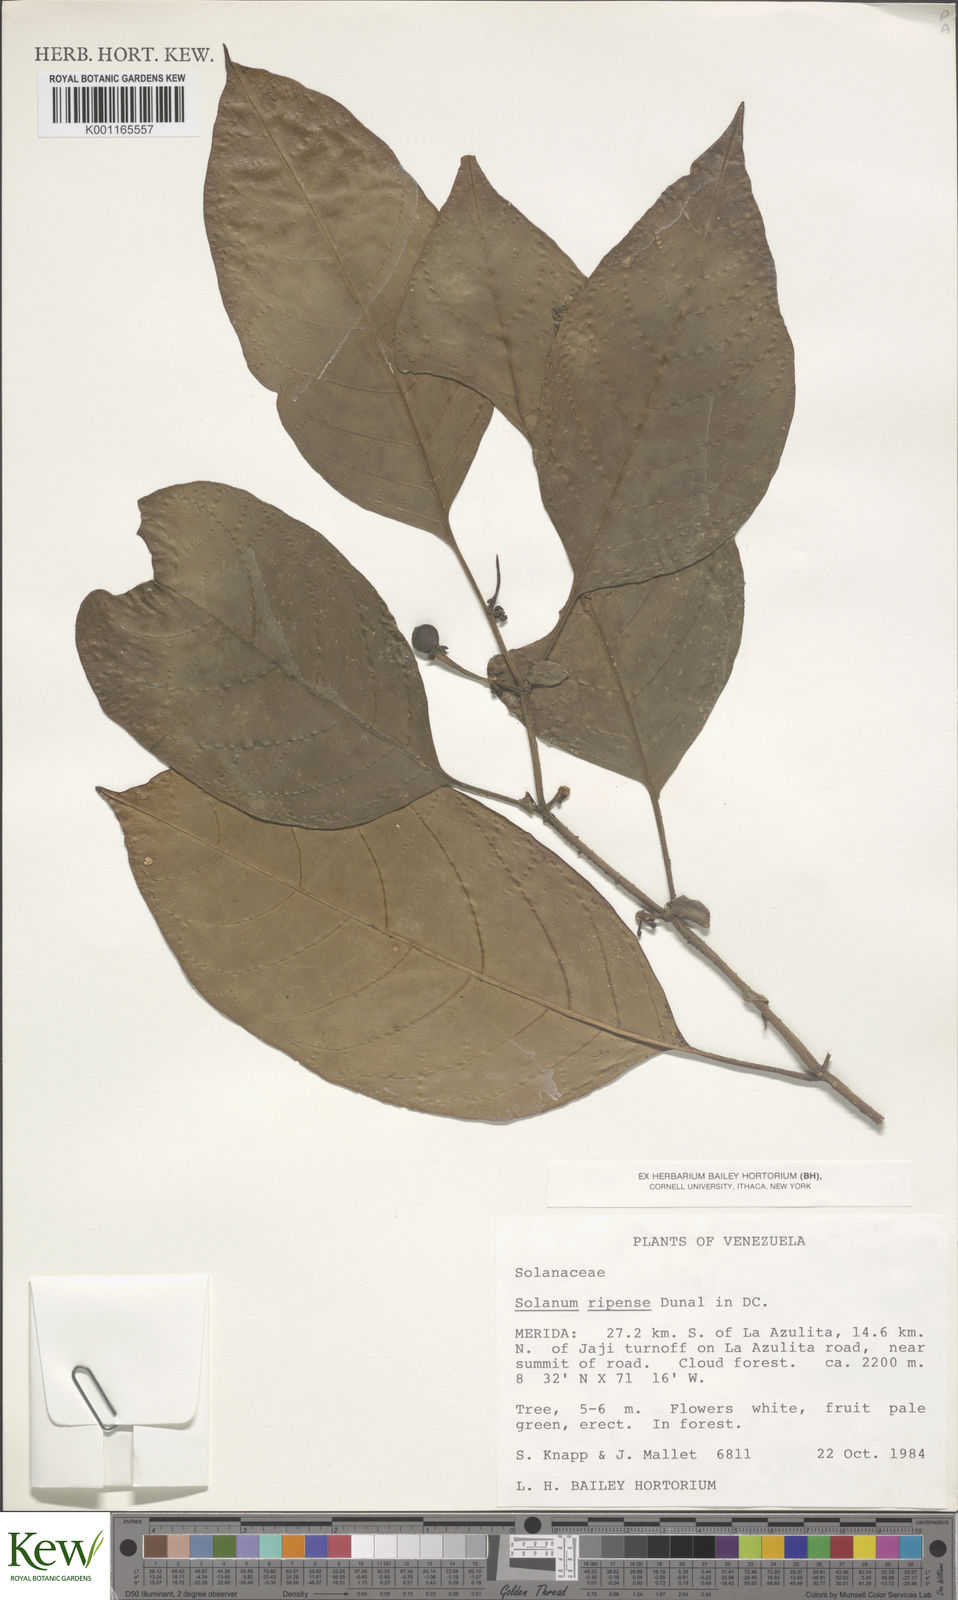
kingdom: Plantae
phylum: Tracheophyta
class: Magnoliopsida
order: Solanales
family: Solanaceae
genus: Solanum
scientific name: Solanum ripense
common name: Mérida nightshade
